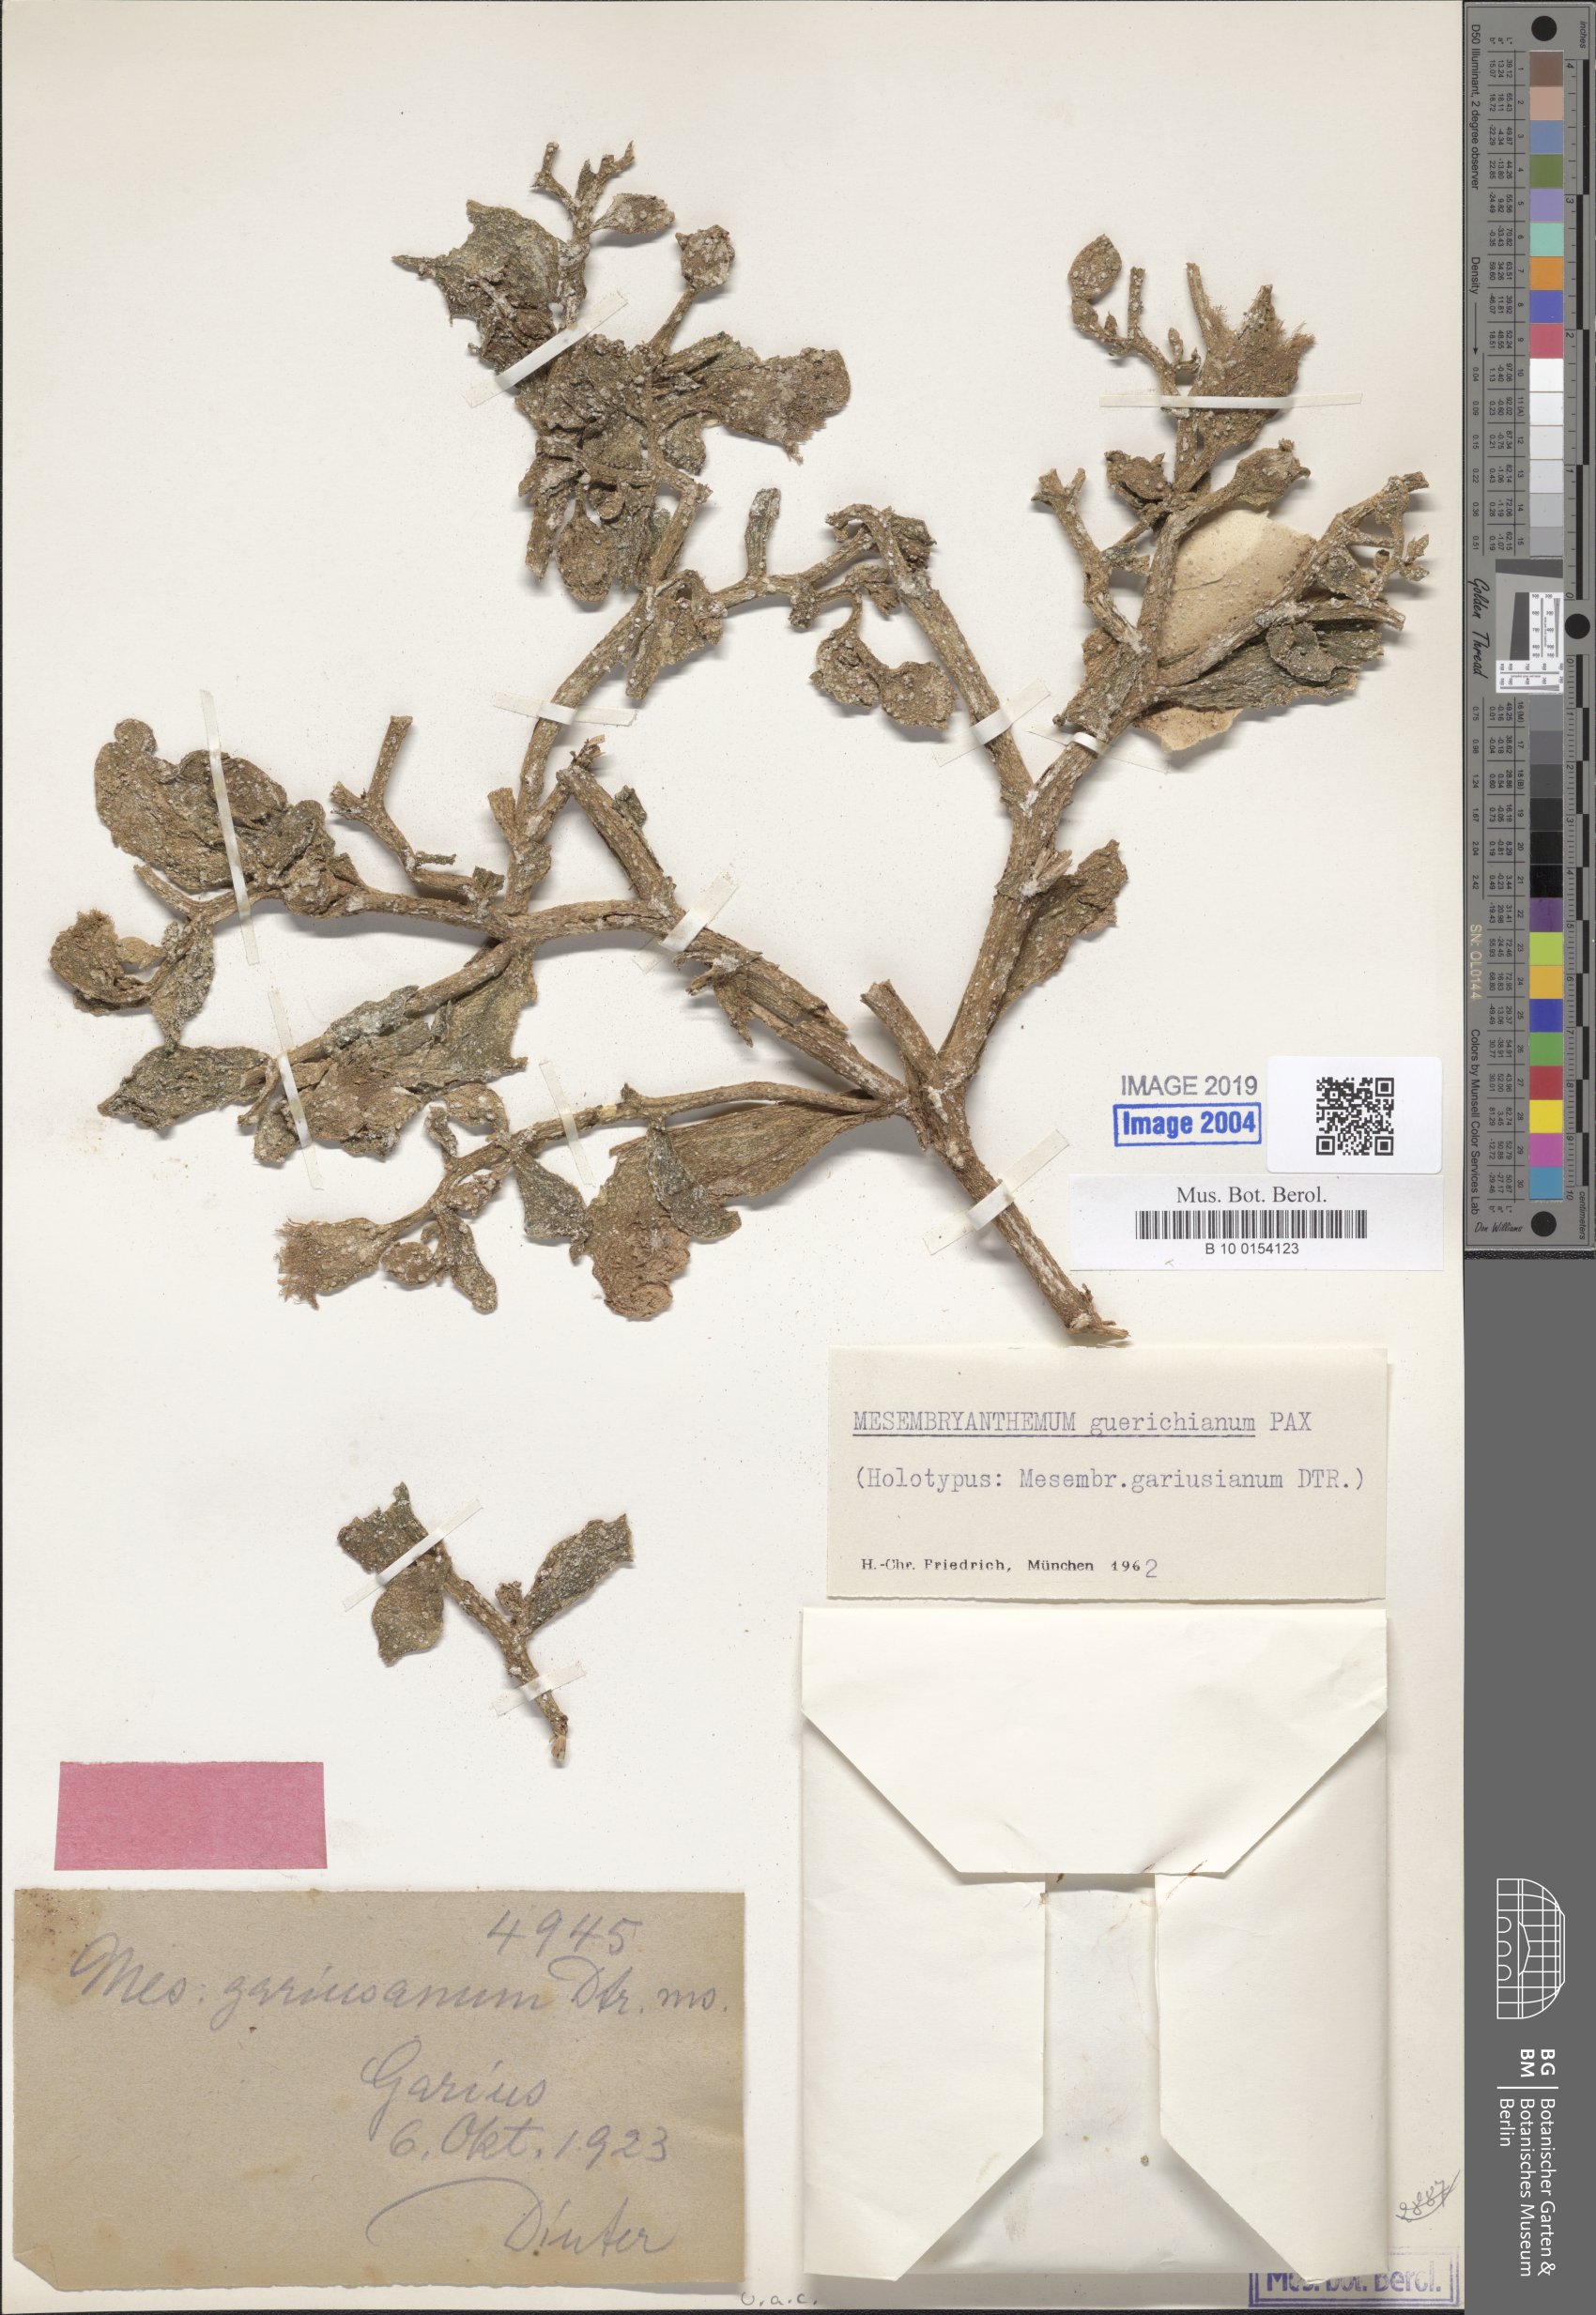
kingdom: Plantae
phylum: Tracheophyta
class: Magnoliopsida
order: Caryophyllales
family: Aizoaceae
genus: Mesembryanthemum
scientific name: Mesembryanthemum guerichianum
